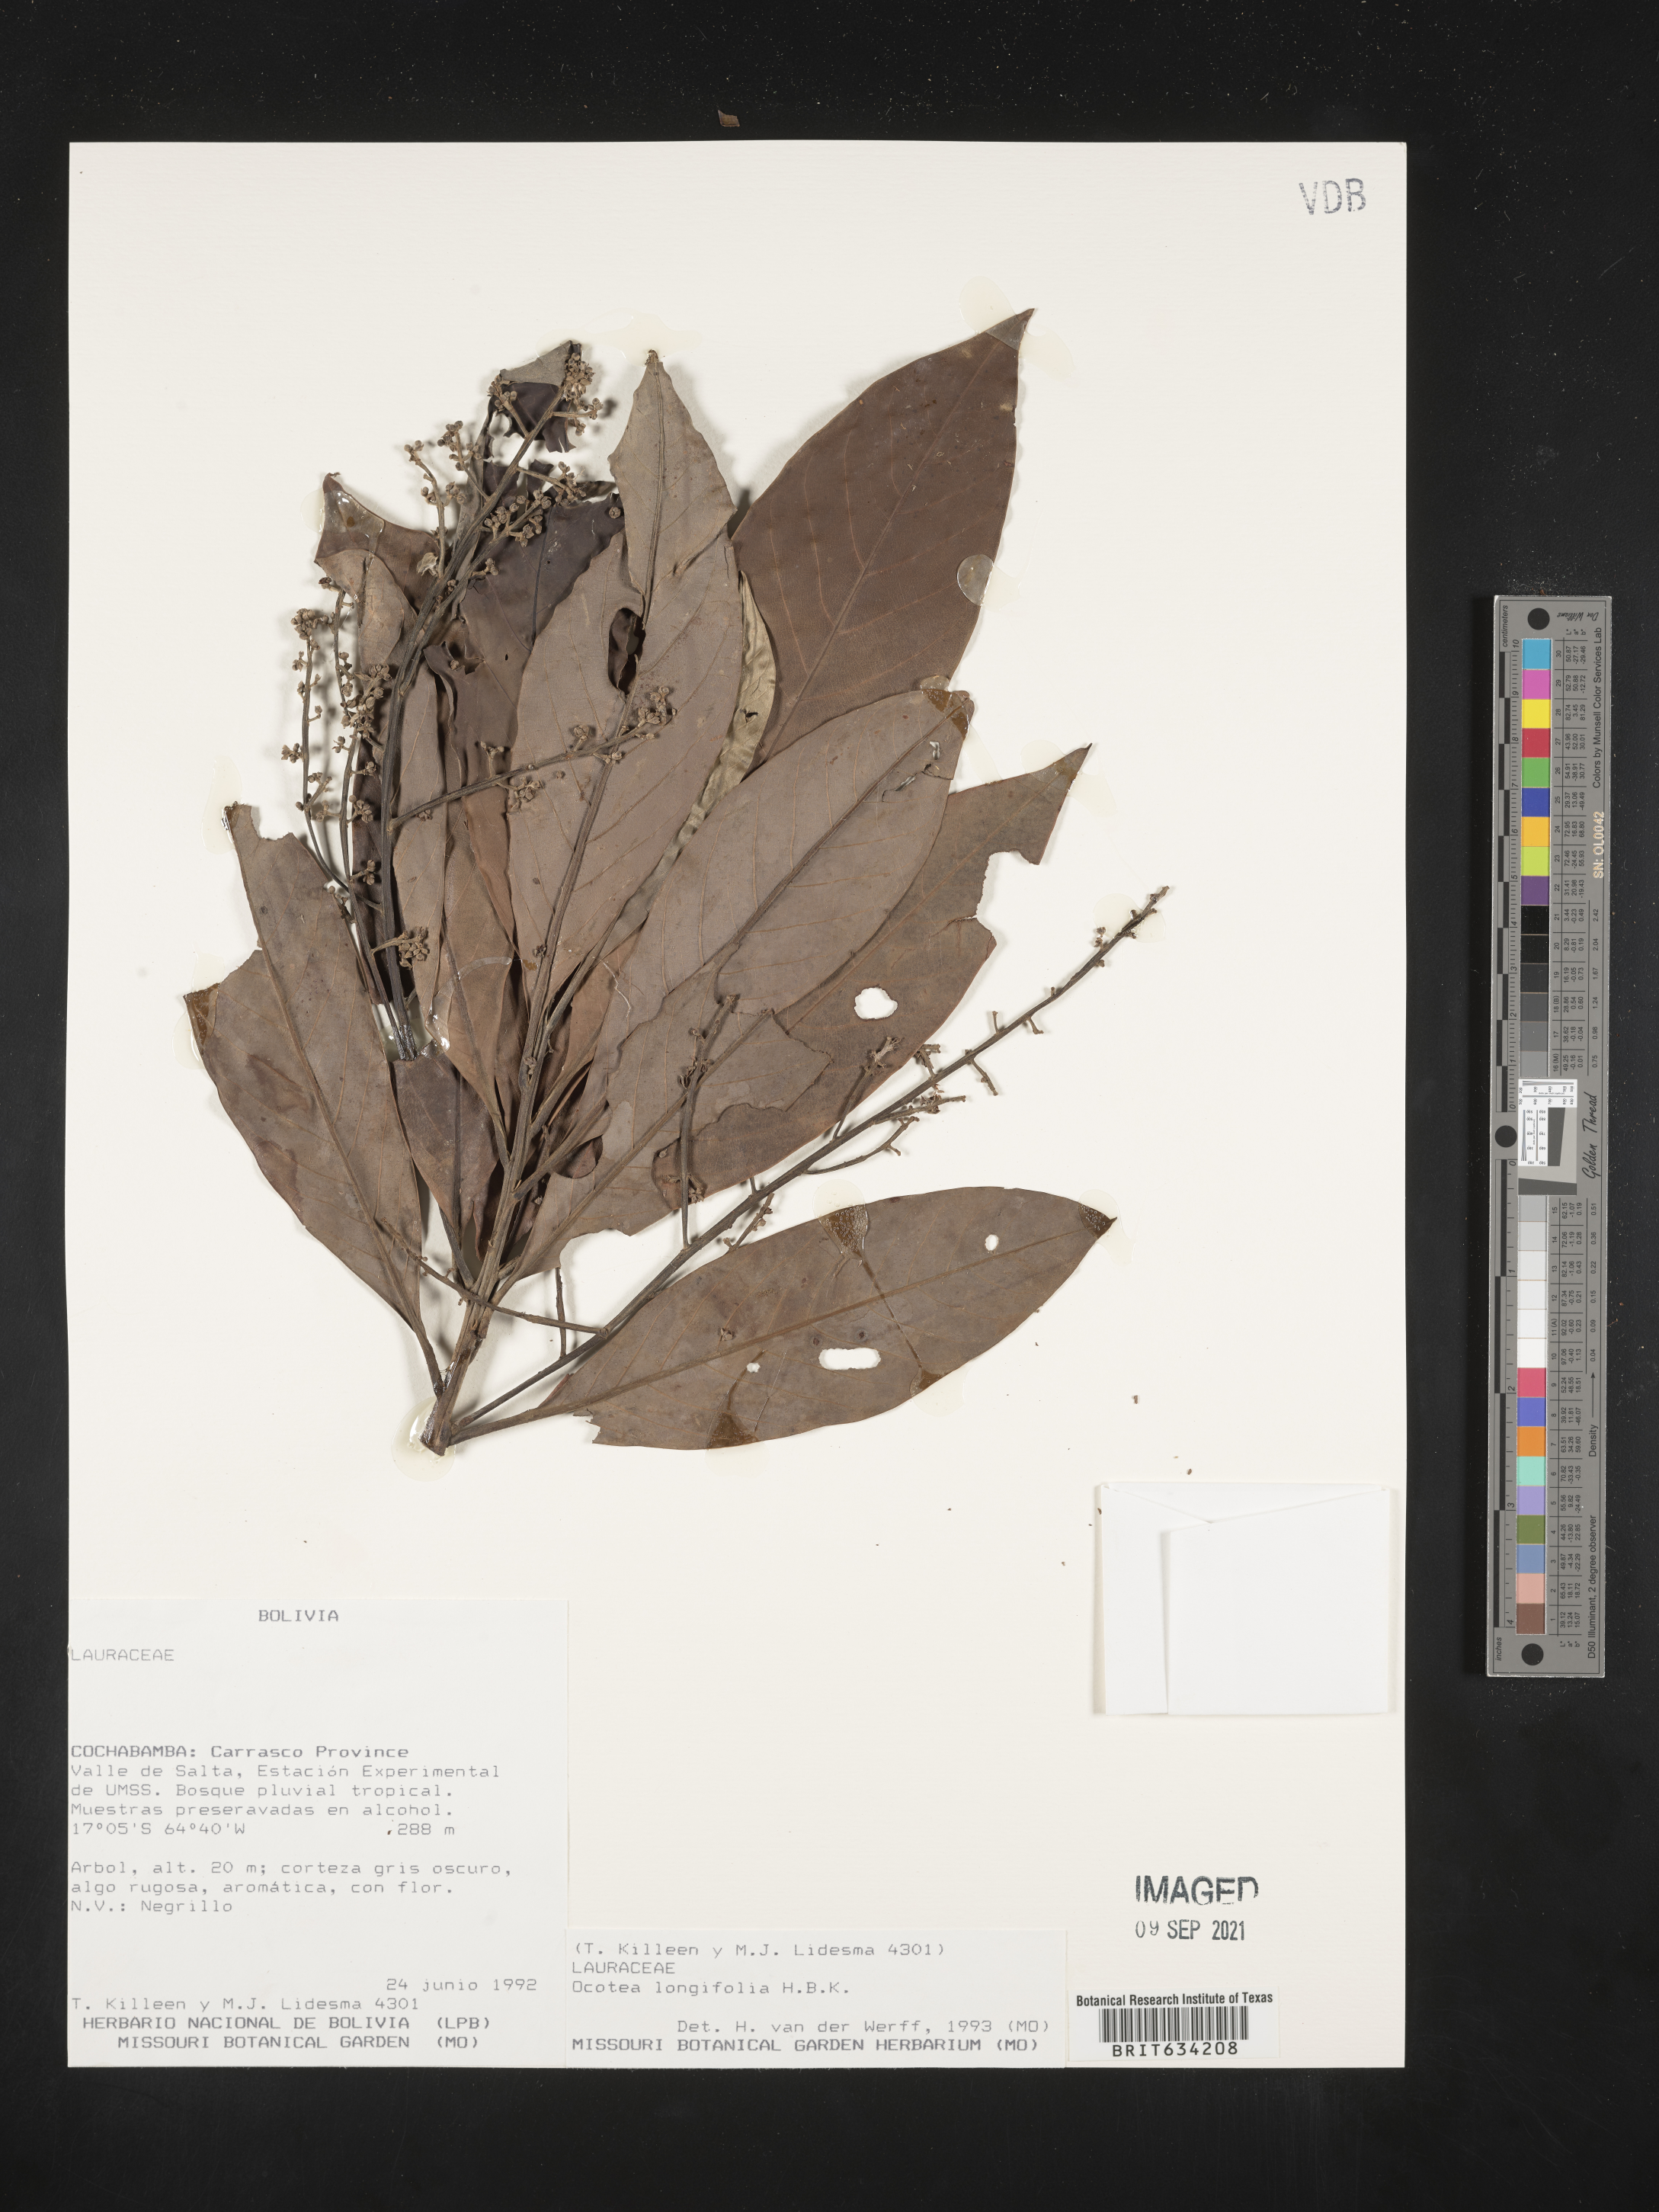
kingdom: Plantae
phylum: Tracheophyta
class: Magnoliopsida
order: Laurales
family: Lauraceae
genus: Nectandra
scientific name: Nectandra
